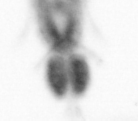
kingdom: Animalia
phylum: Arthropoda
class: Copepoda
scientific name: Copepoda
